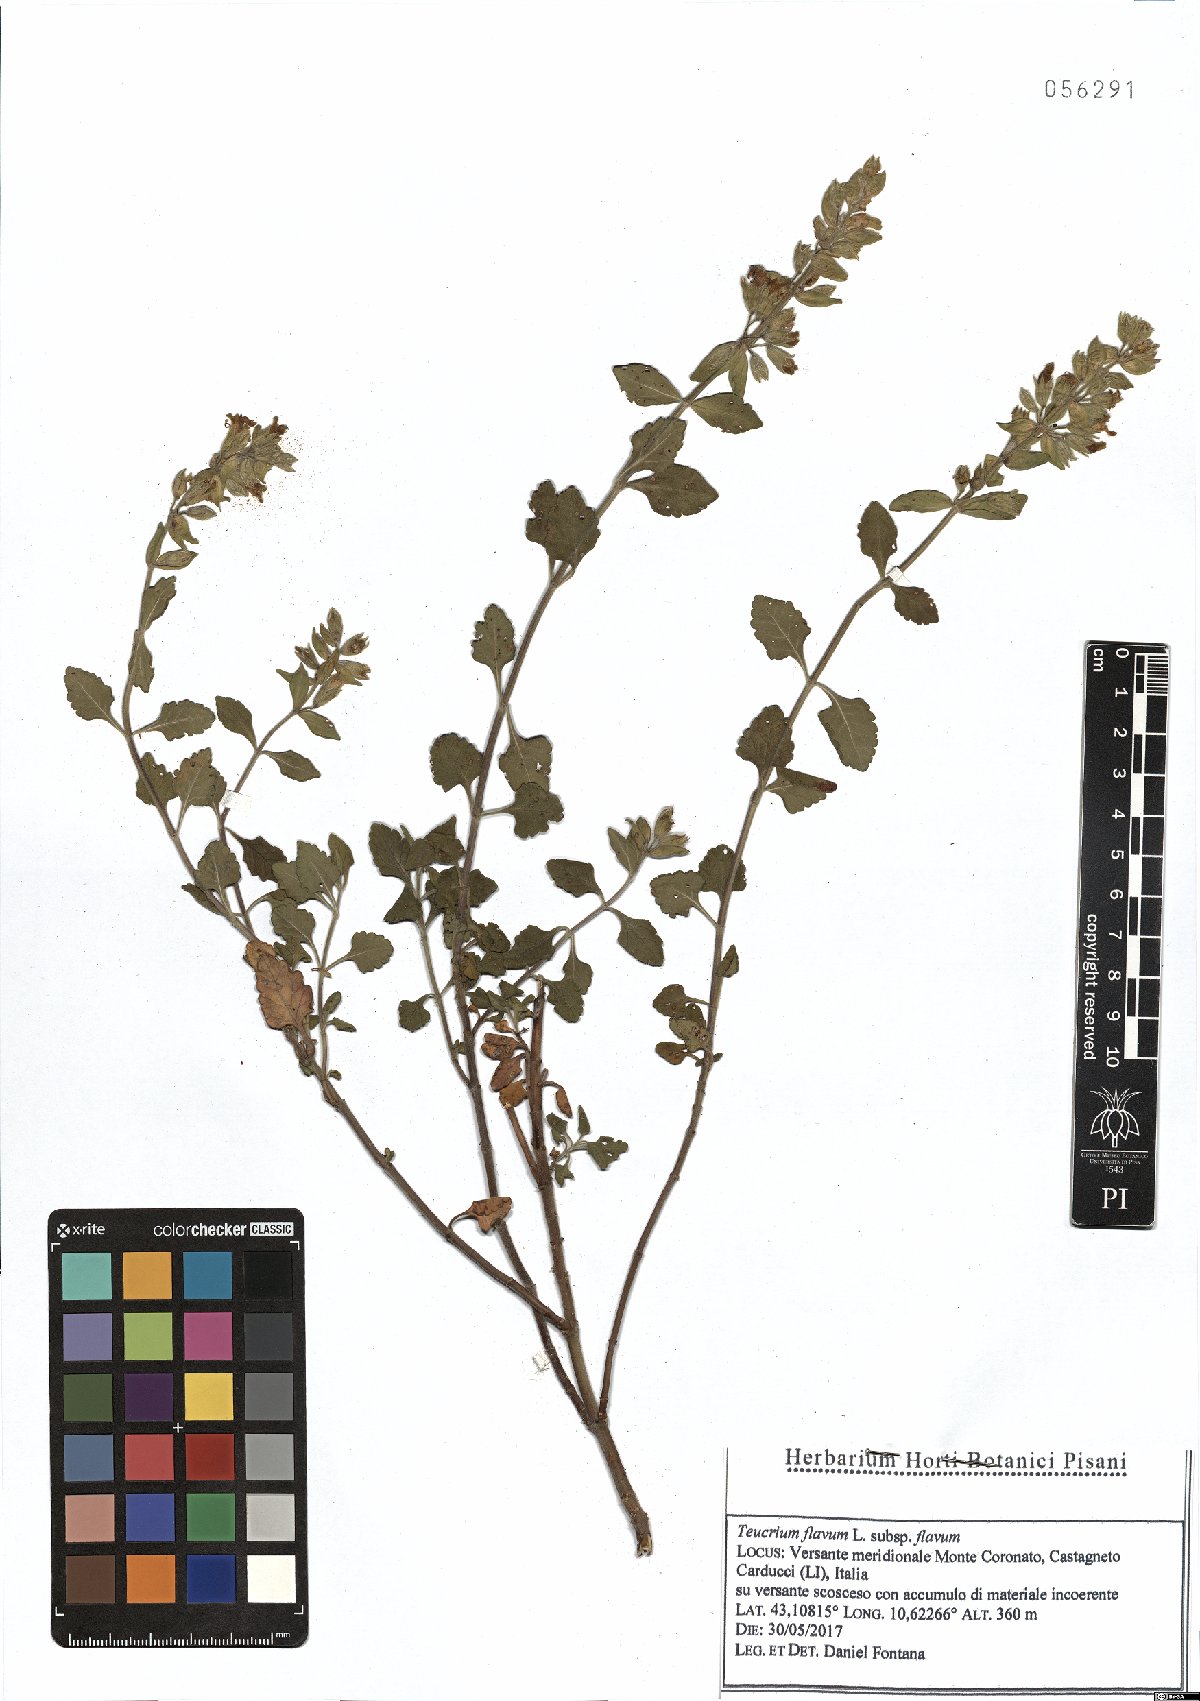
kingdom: Plantae
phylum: Tracheophyta
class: Magnoliopsida
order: Lamiales
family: Lamiaceae
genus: Teucrium
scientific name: Teucrium flavum
